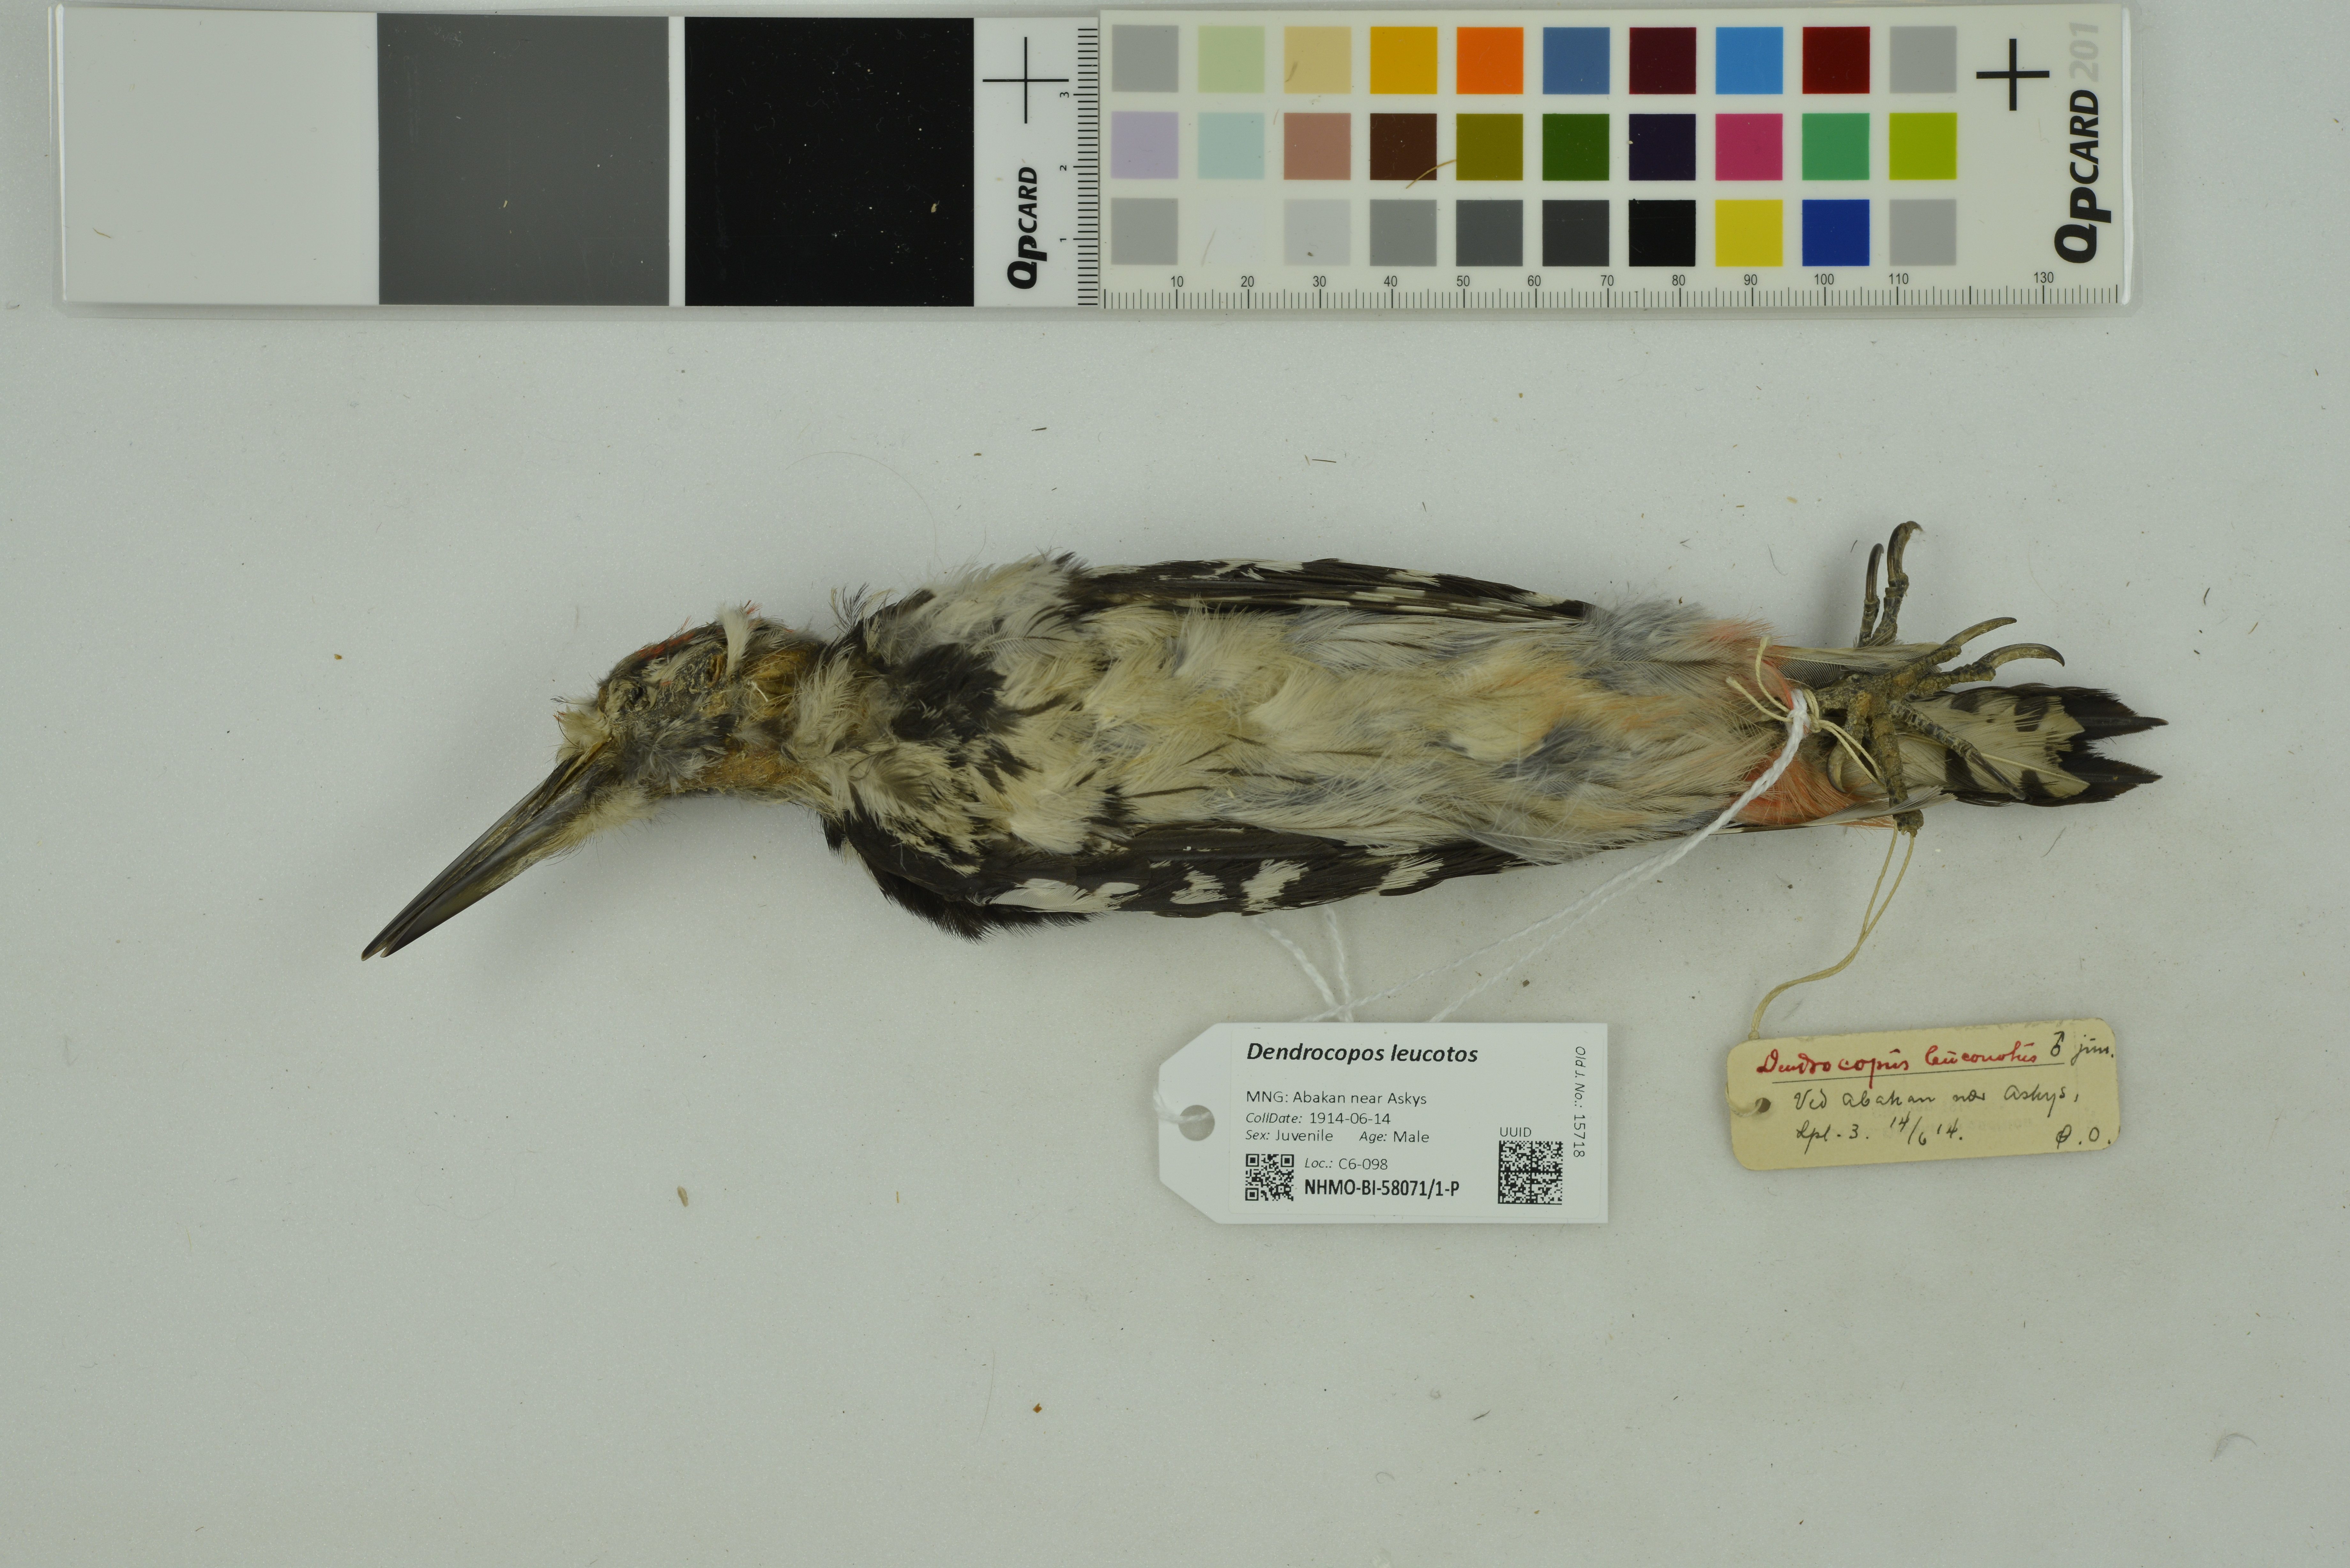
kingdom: Animalia
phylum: Chordata
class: Aves
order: Piciformes
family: Picidae
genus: Dendrocopos
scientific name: Dendrocopos leucotos
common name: White-backed woodpecker
